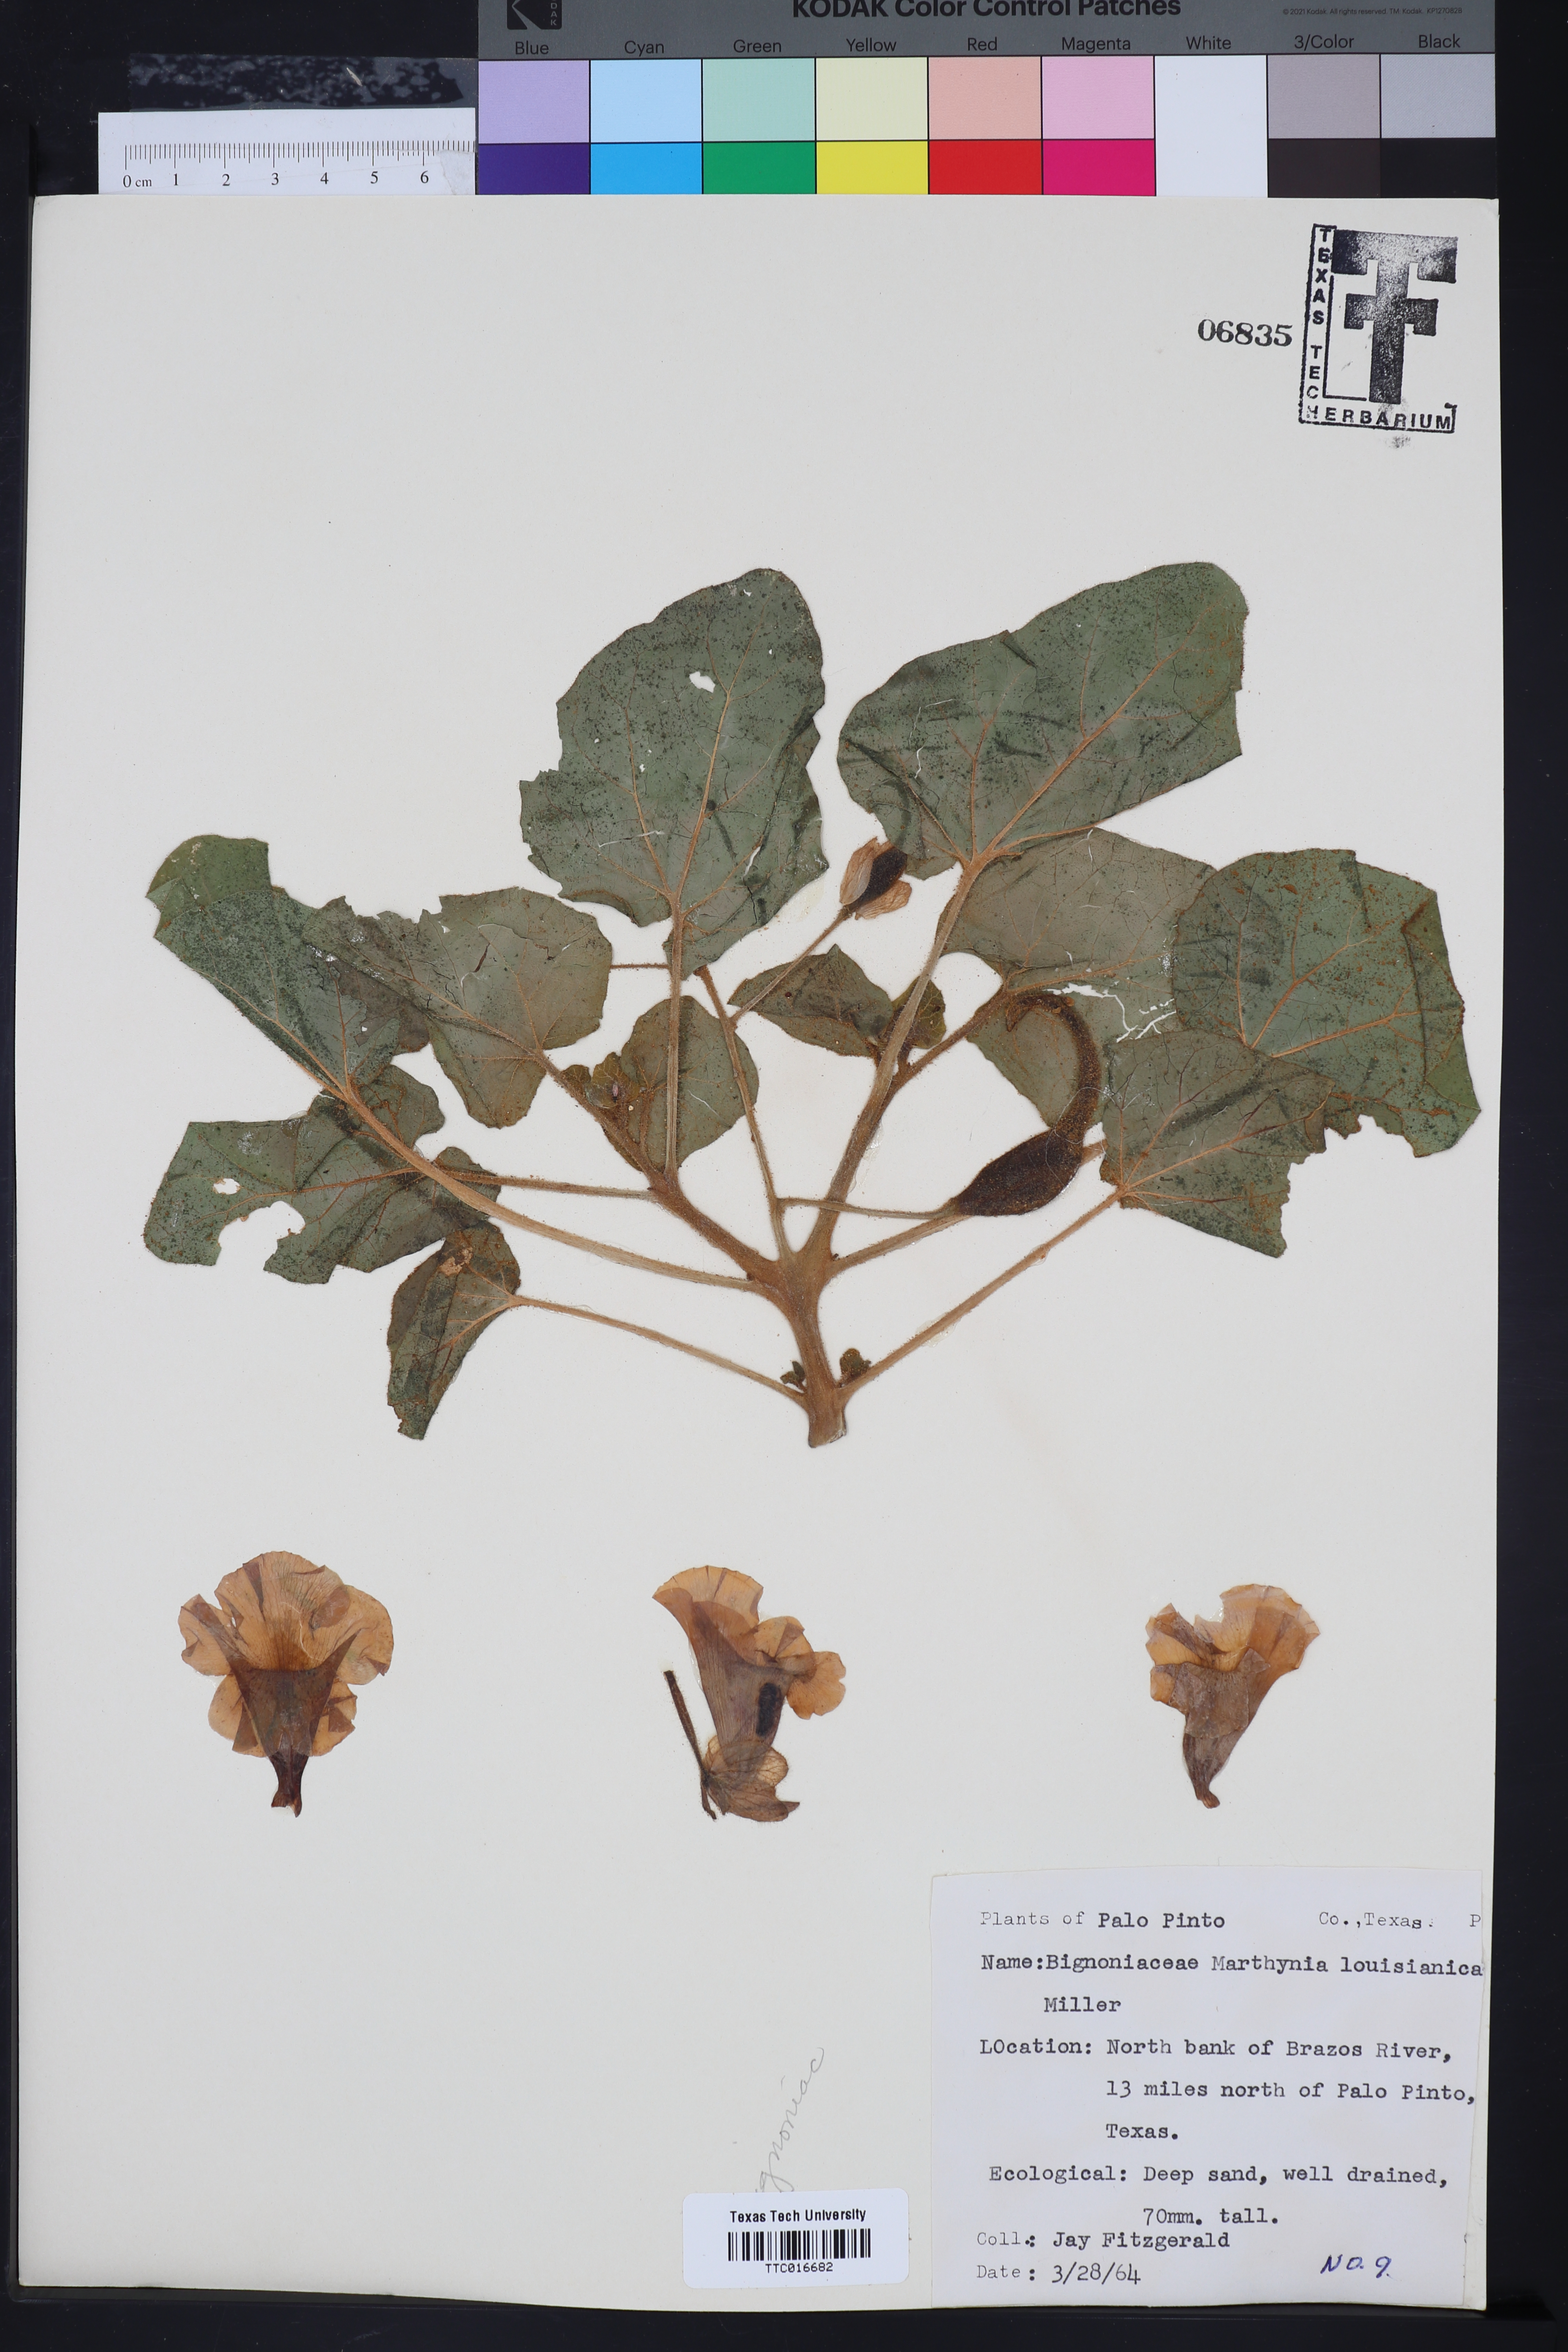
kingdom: Plantae
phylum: Tracheophyta
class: Magnoliopsida
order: Lamiales
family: Martyniaceae
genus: Proboscidea
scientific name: Proboscidea louisianica
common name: Elephant tusks
